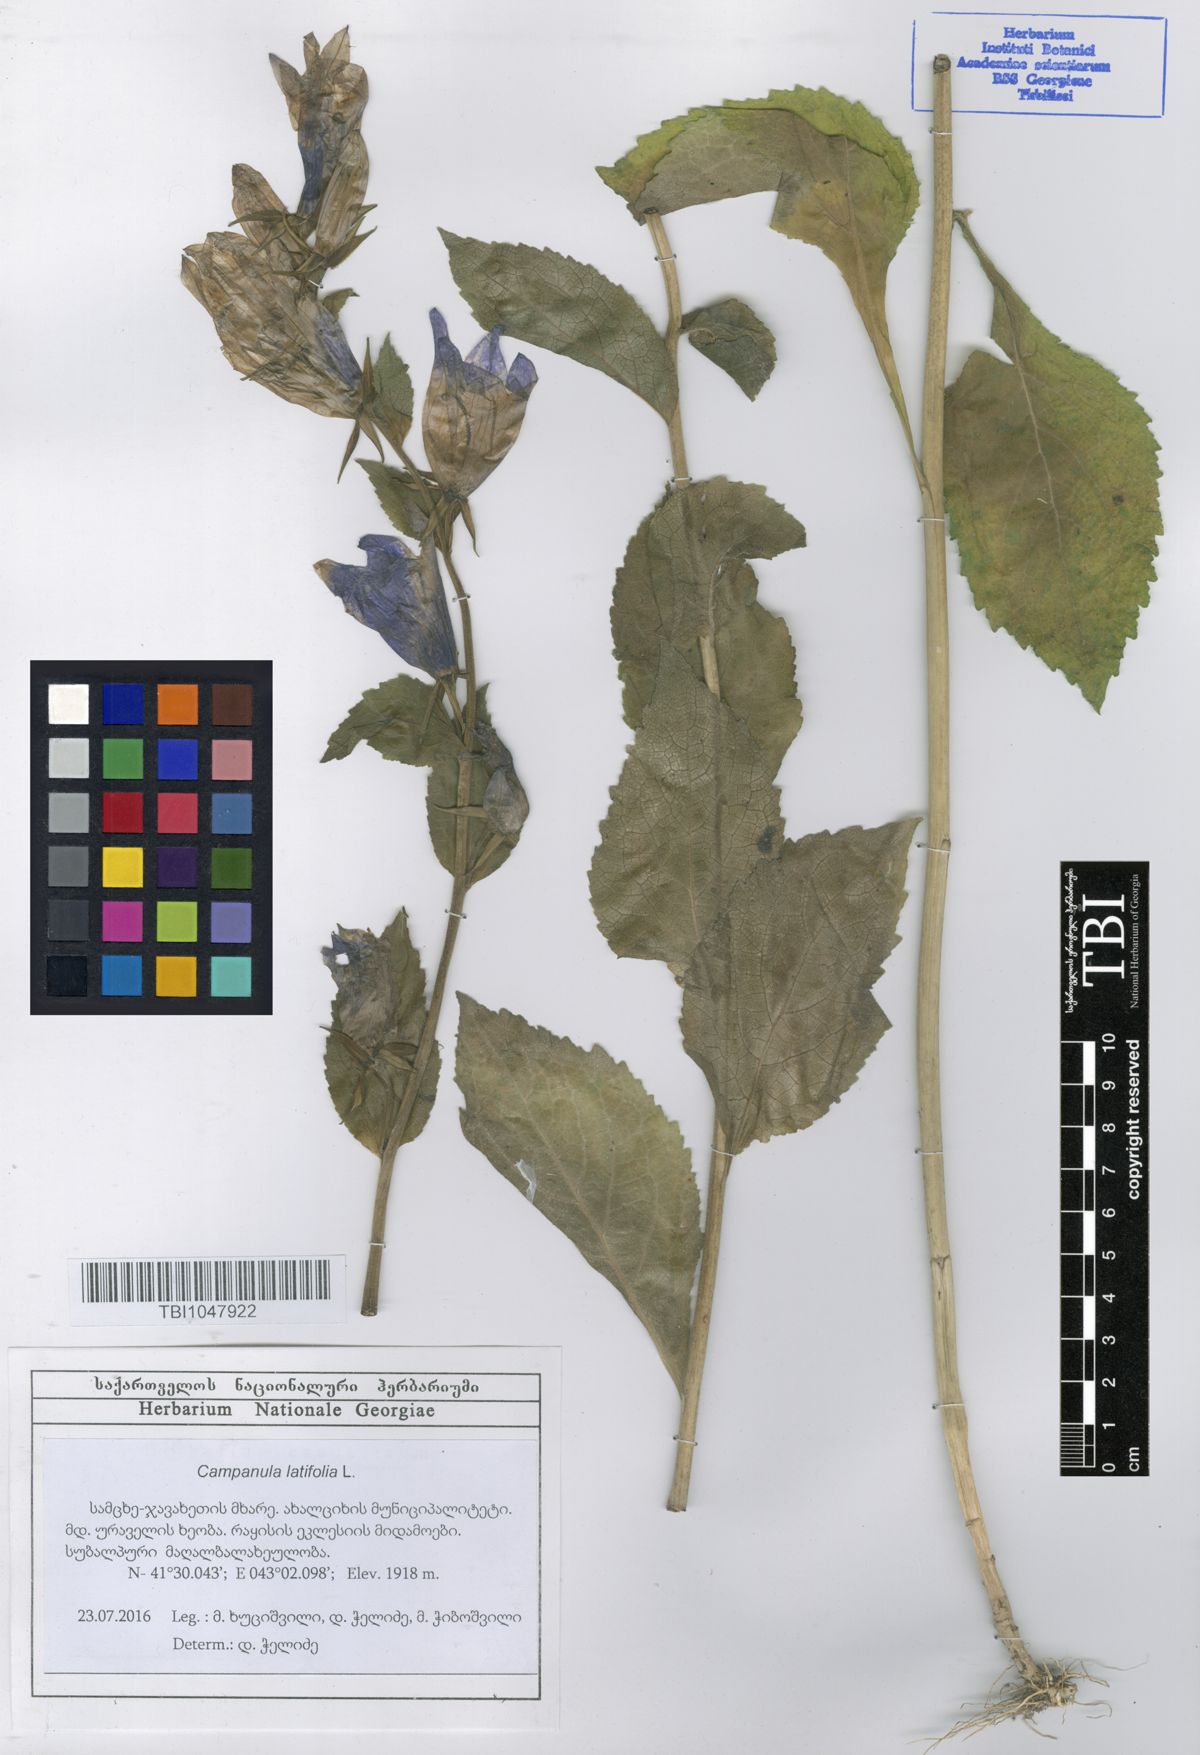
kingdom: Plantae
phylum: Tracheophyta
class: Magnoliopsida
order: Asterales
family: Campanulaceae
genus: Campanula
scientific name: Campanula latifolia
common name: Giant bellflower
